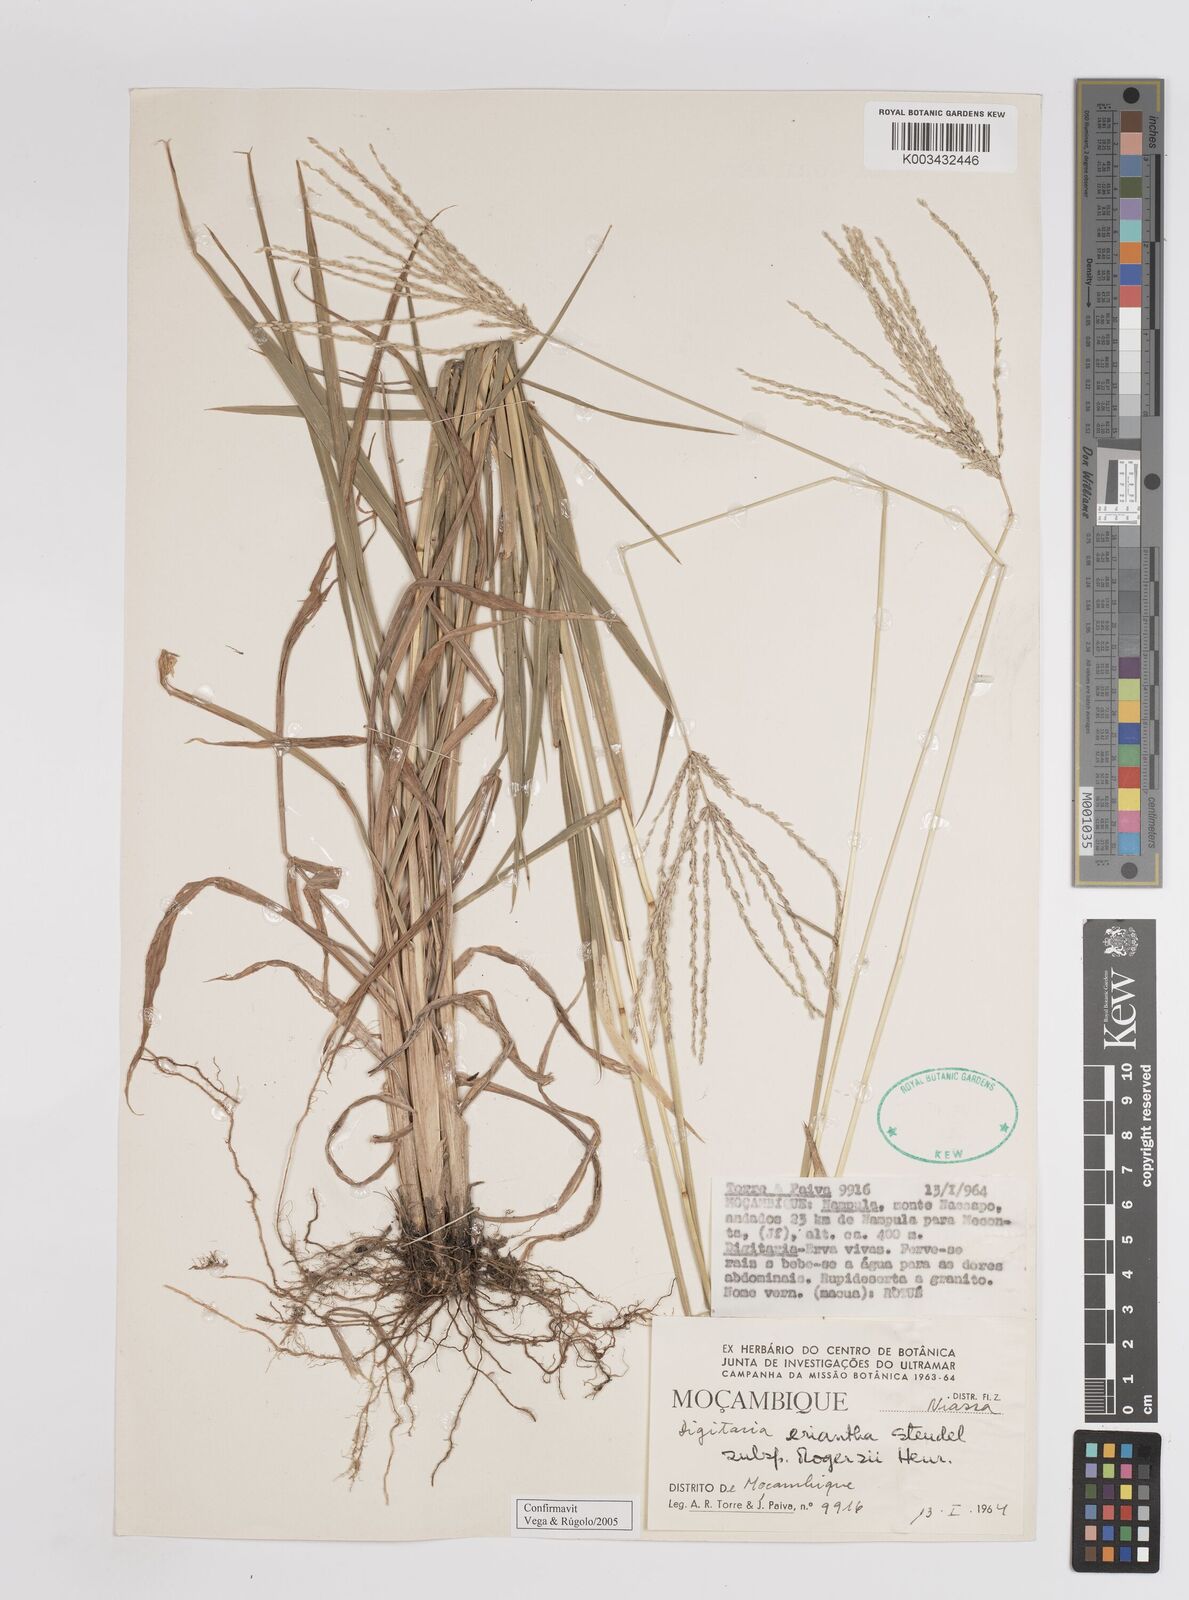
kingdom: Plantae
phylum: Tracheophyta
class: Liliopsida
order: Poales
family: Poaceae
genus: Digitaria
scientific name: Digitaria eriantha
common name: Digitgrass
